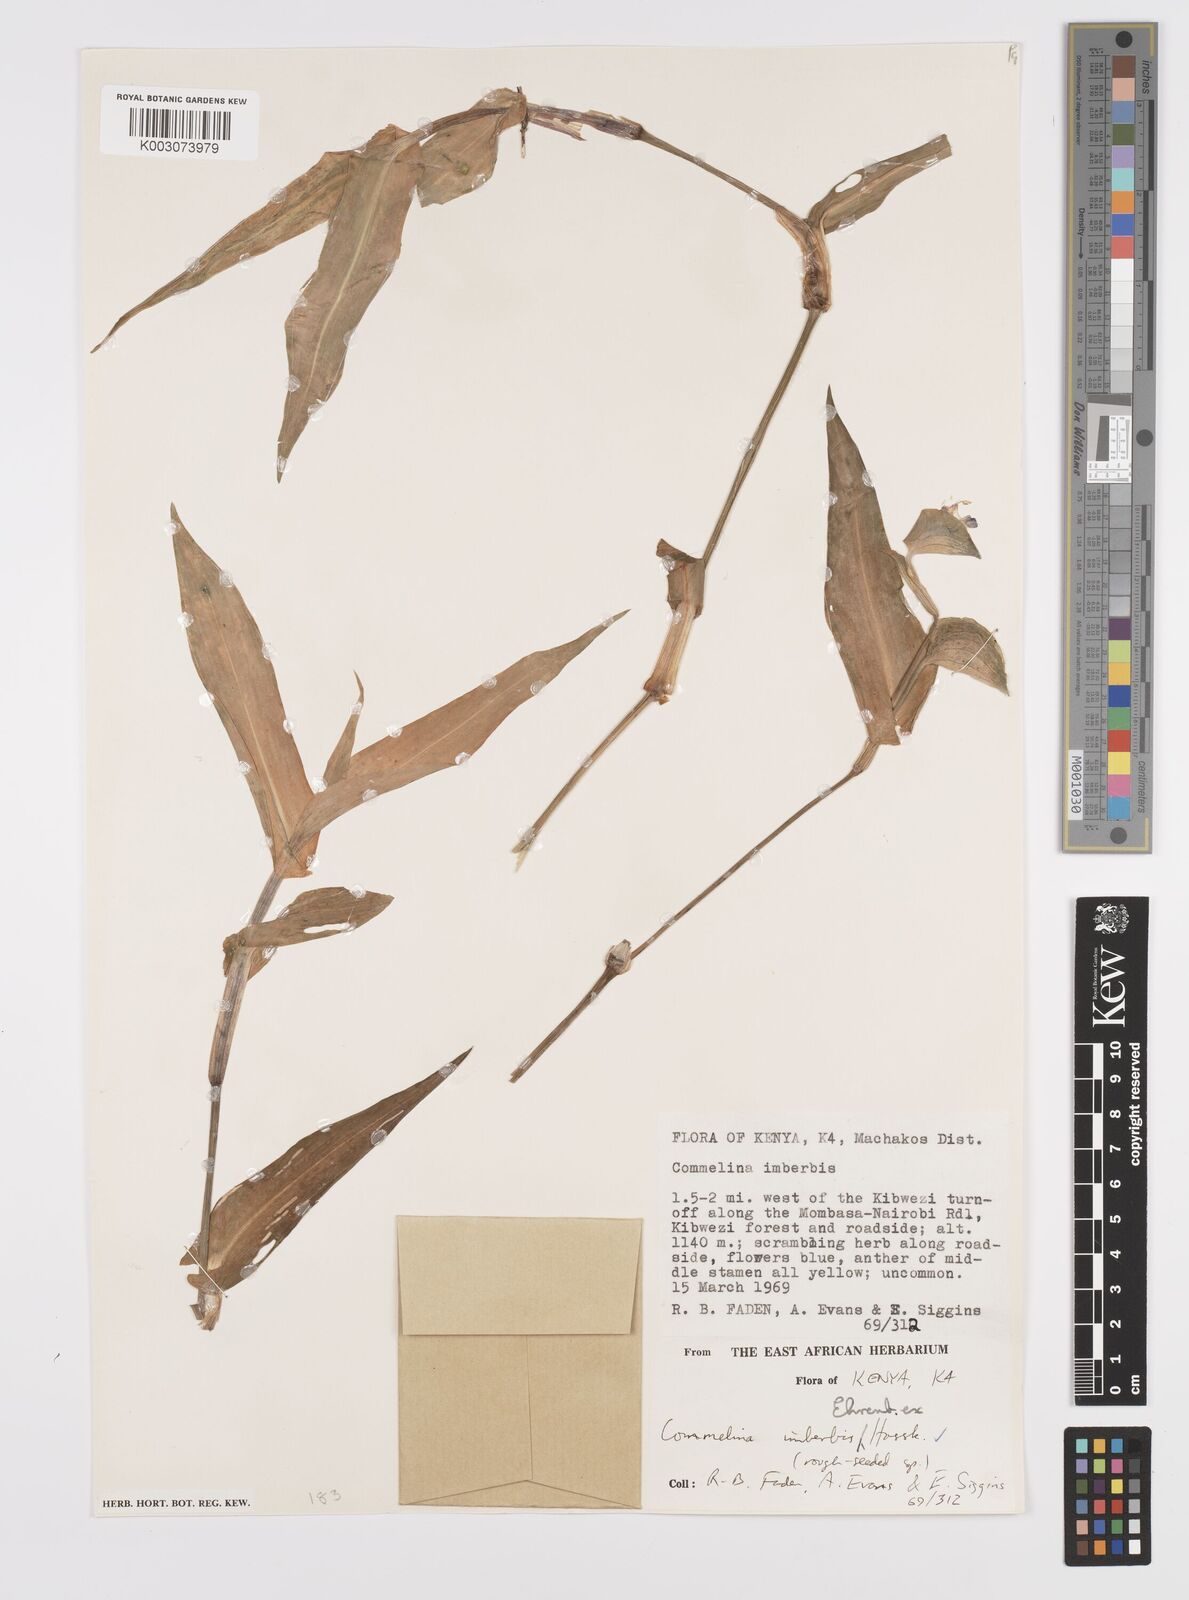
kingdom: Plantae
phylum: Tracheophyta
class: Liliopsida
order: Commelinales
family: Commelinaceae
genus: Commelina
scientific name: Commelina imberbis
